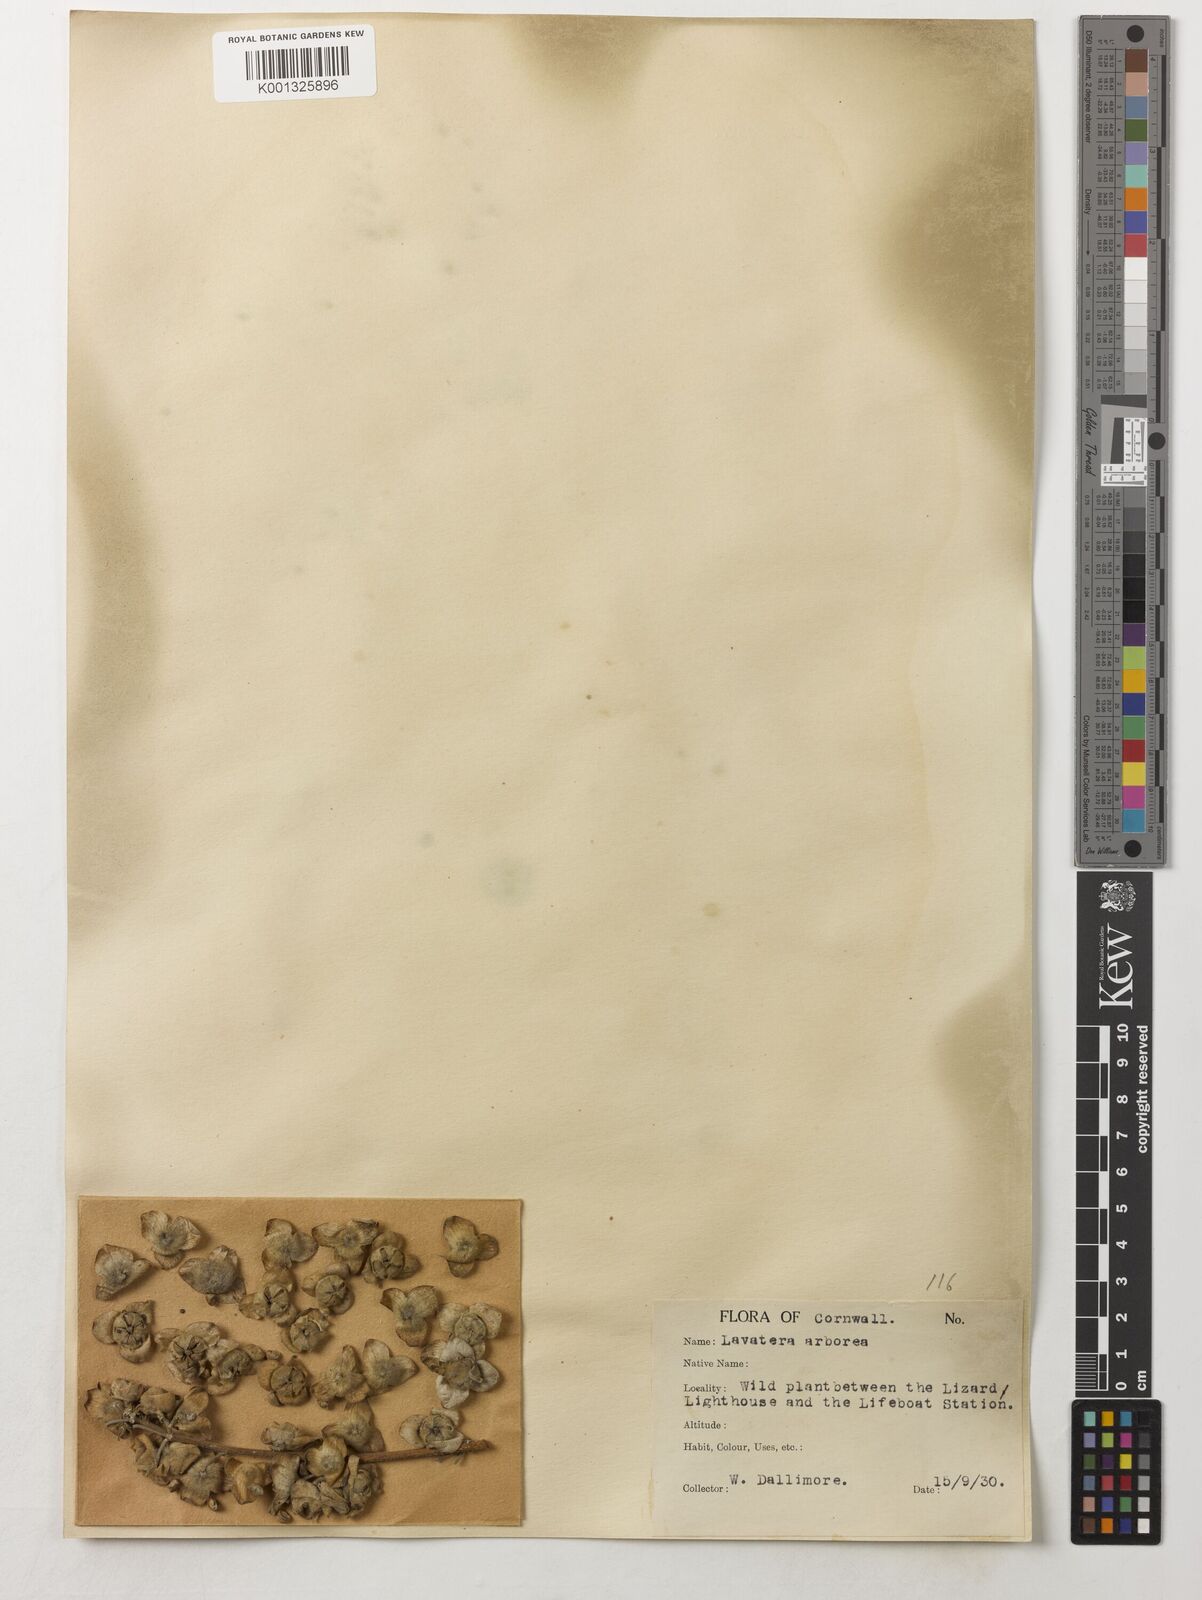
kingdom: Plantae
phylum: Tracheophyta
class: Magnoliopsida
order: Malvales
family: Malvaceae
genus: Malva
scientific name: Malva arborea
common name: Tree mallow
